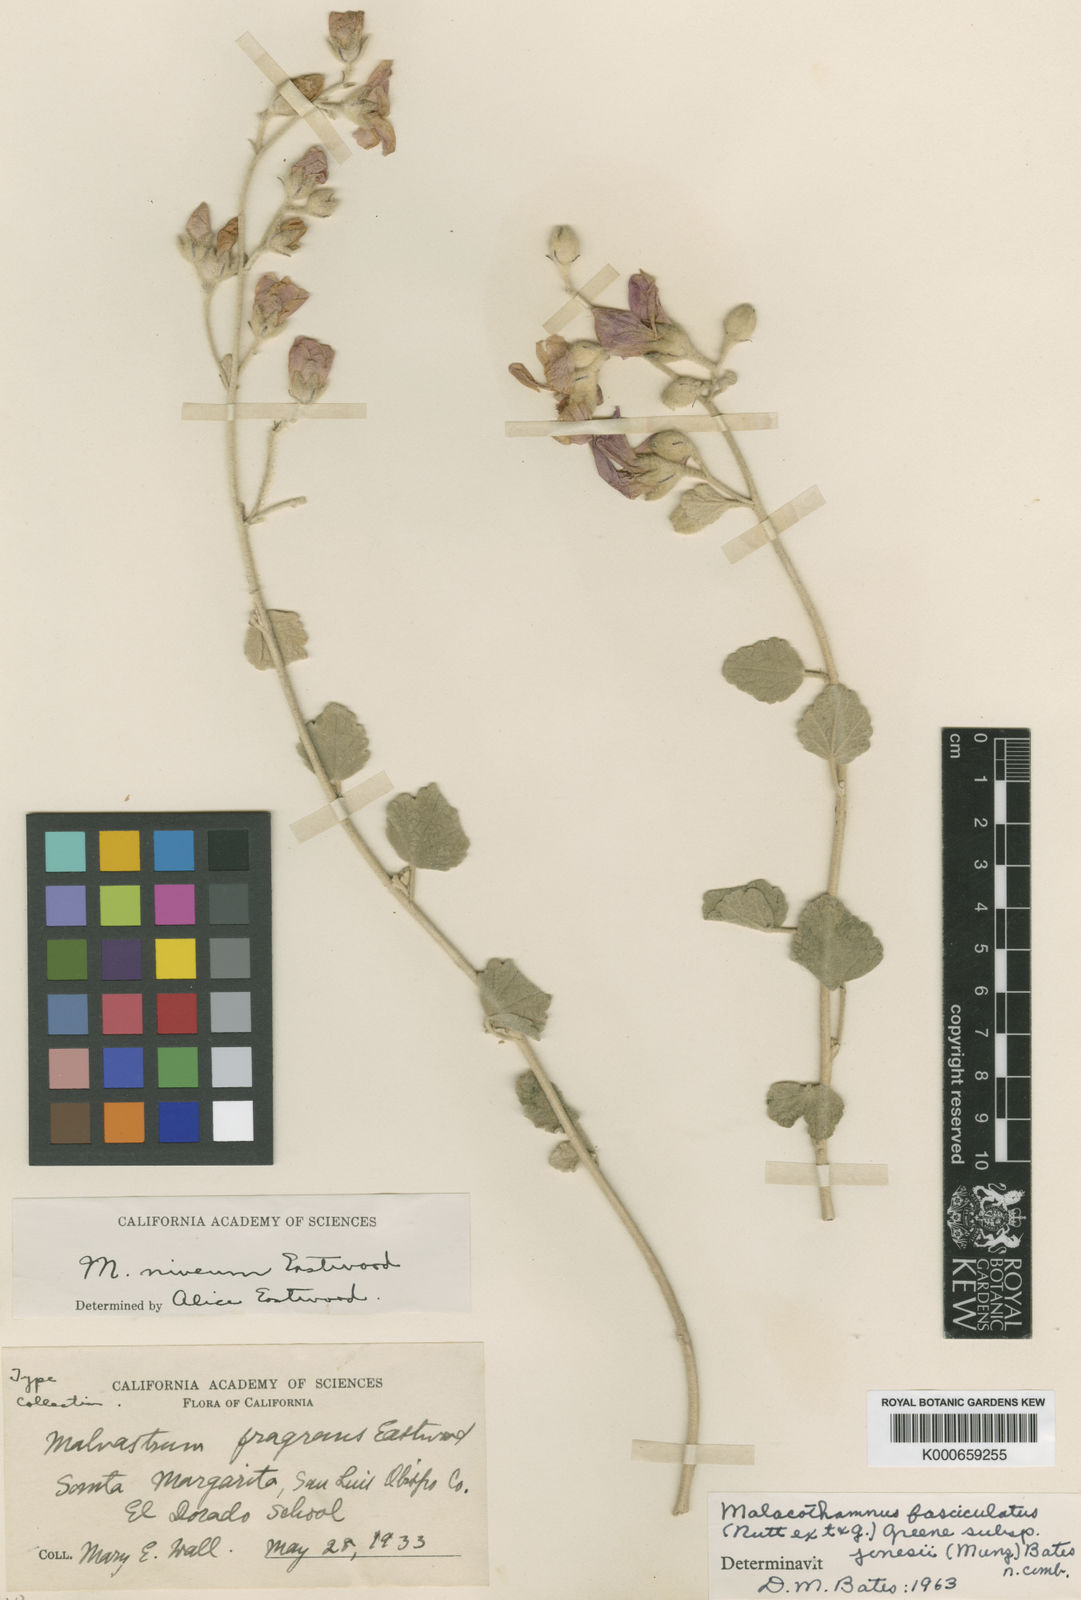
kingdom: Plantae
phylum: Tracheophyta
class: Magnoliopsida
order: Malvales
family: Malvaceae
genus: Malacothamnus
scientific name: Malacothamnus fasciculatus
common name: Sant cruz island bush-mallow
